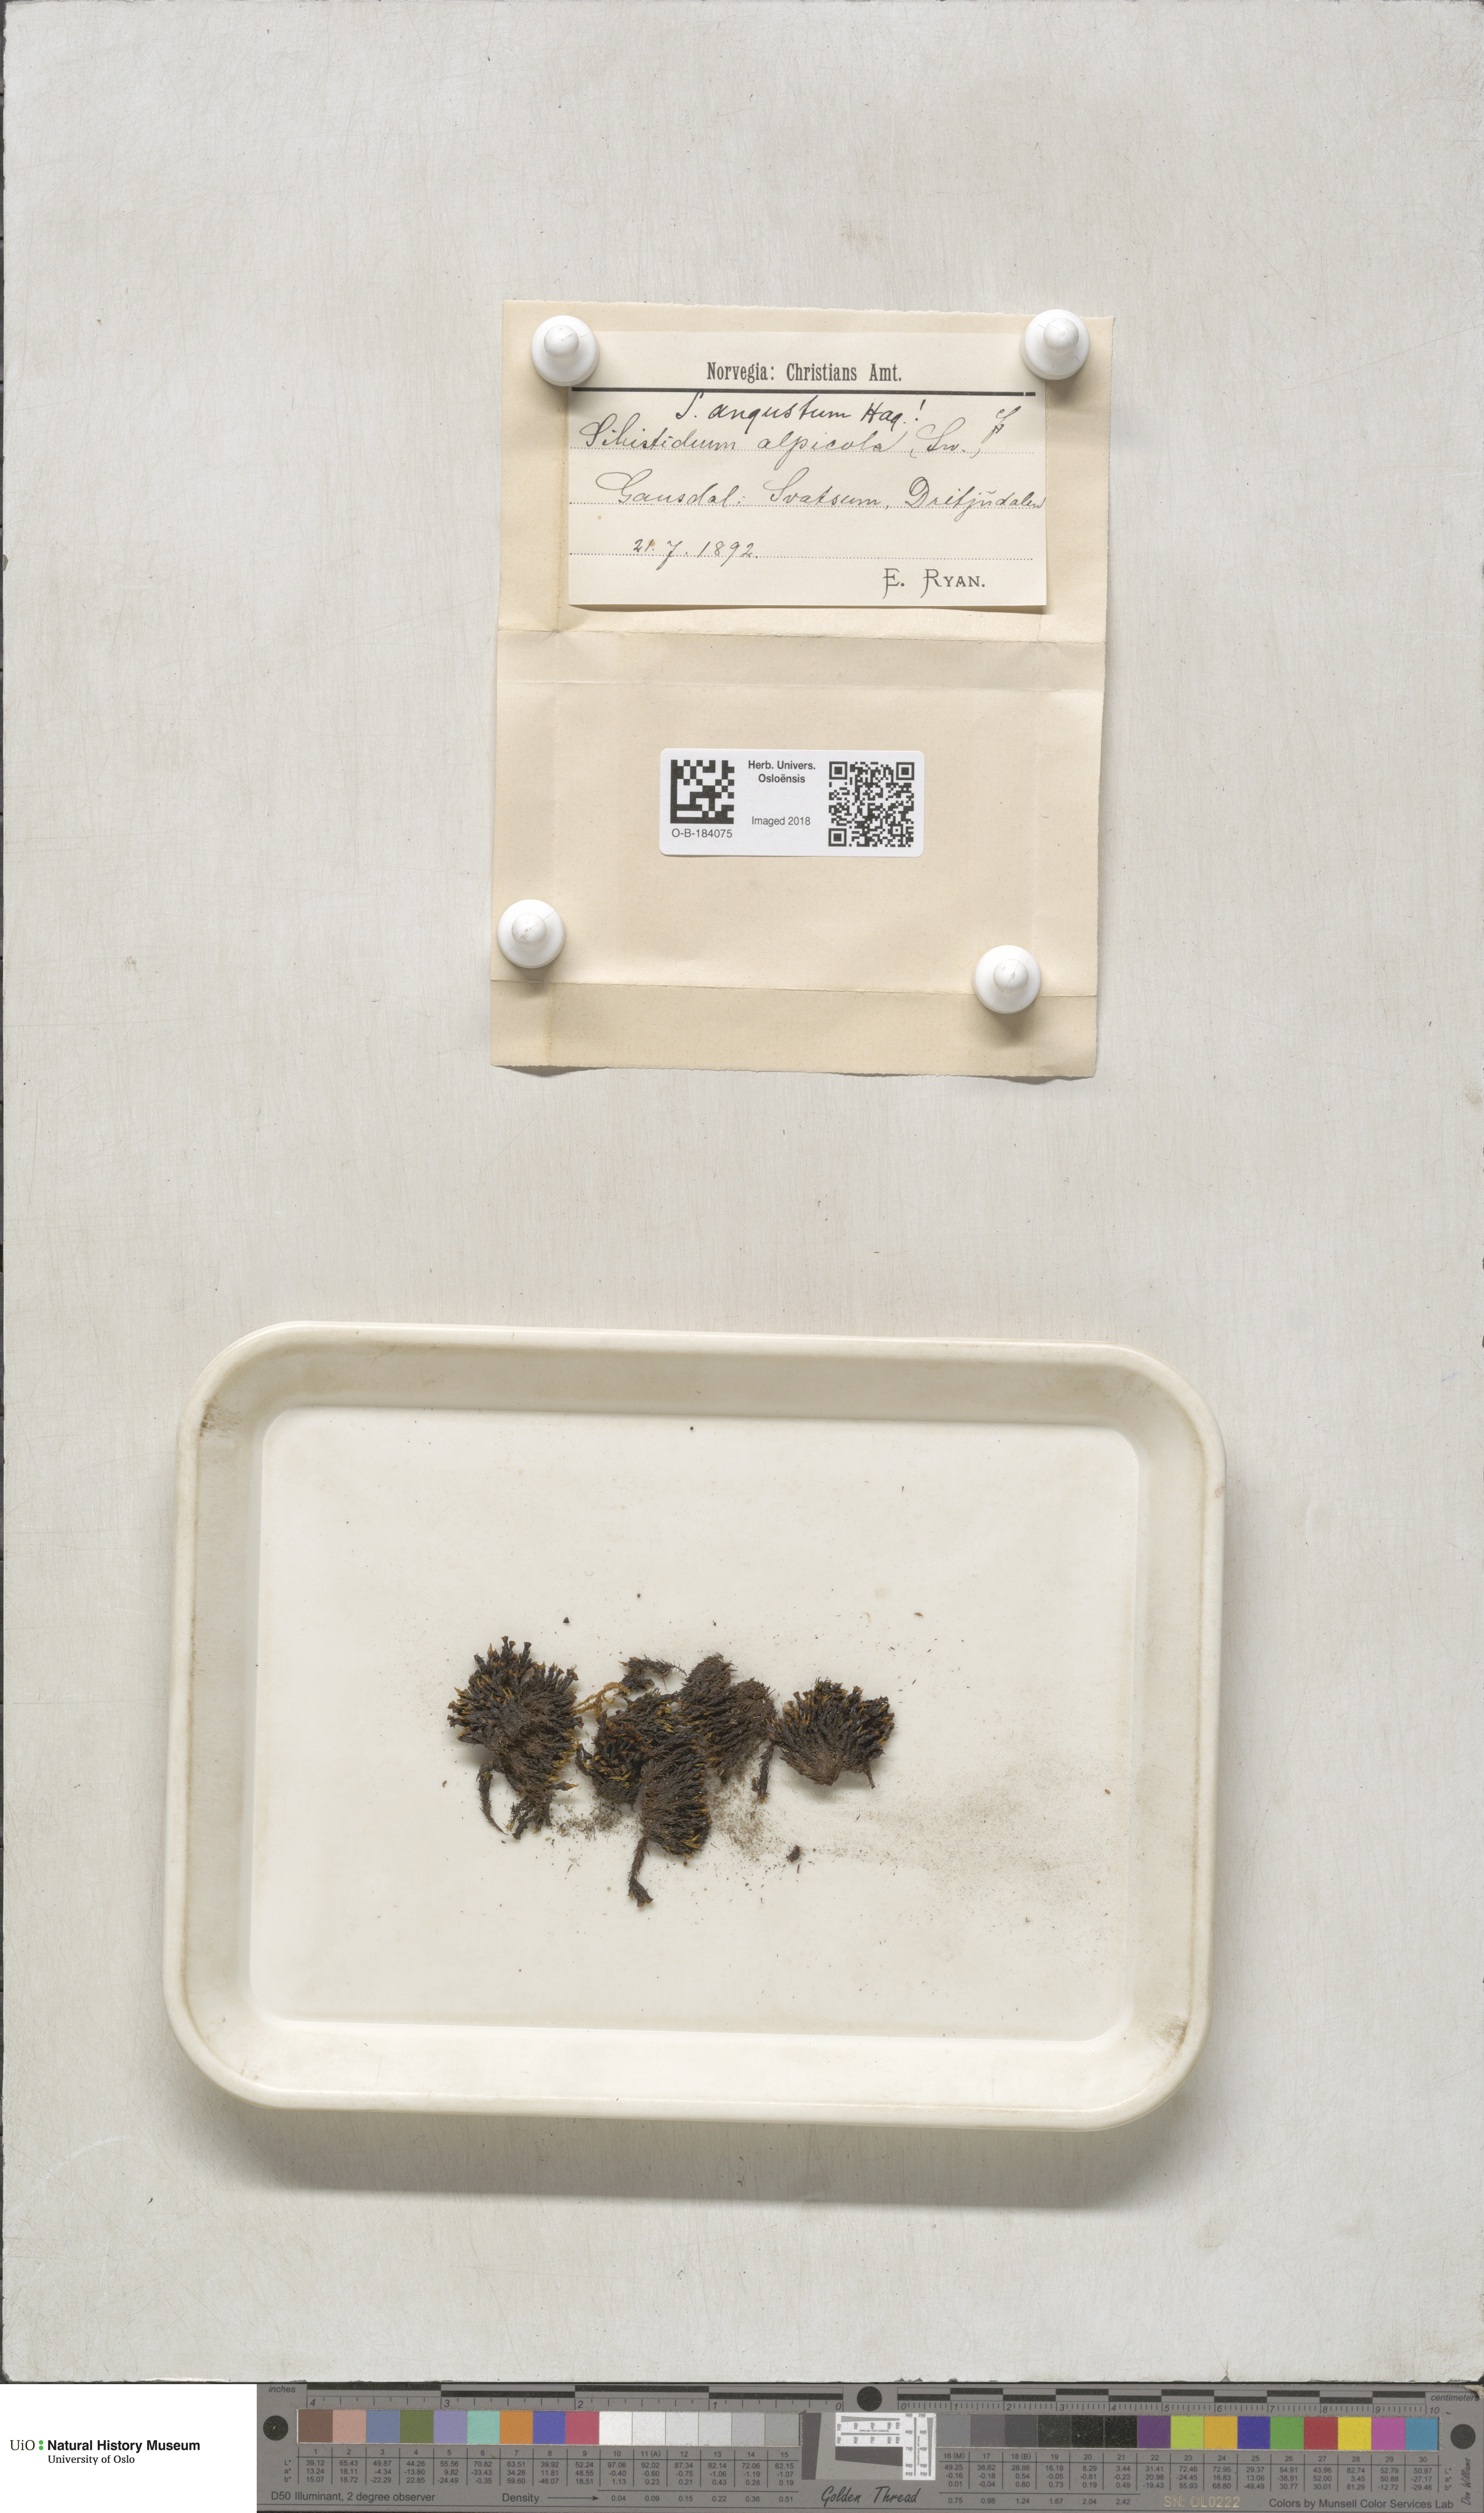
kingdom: Plantae
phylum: Bryophyta
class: Bryopsida
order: Grimmiales
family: Grimmiaceae
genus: Schistidium
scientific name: Schistidium agassizii
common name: Agassiz's bloom moss
